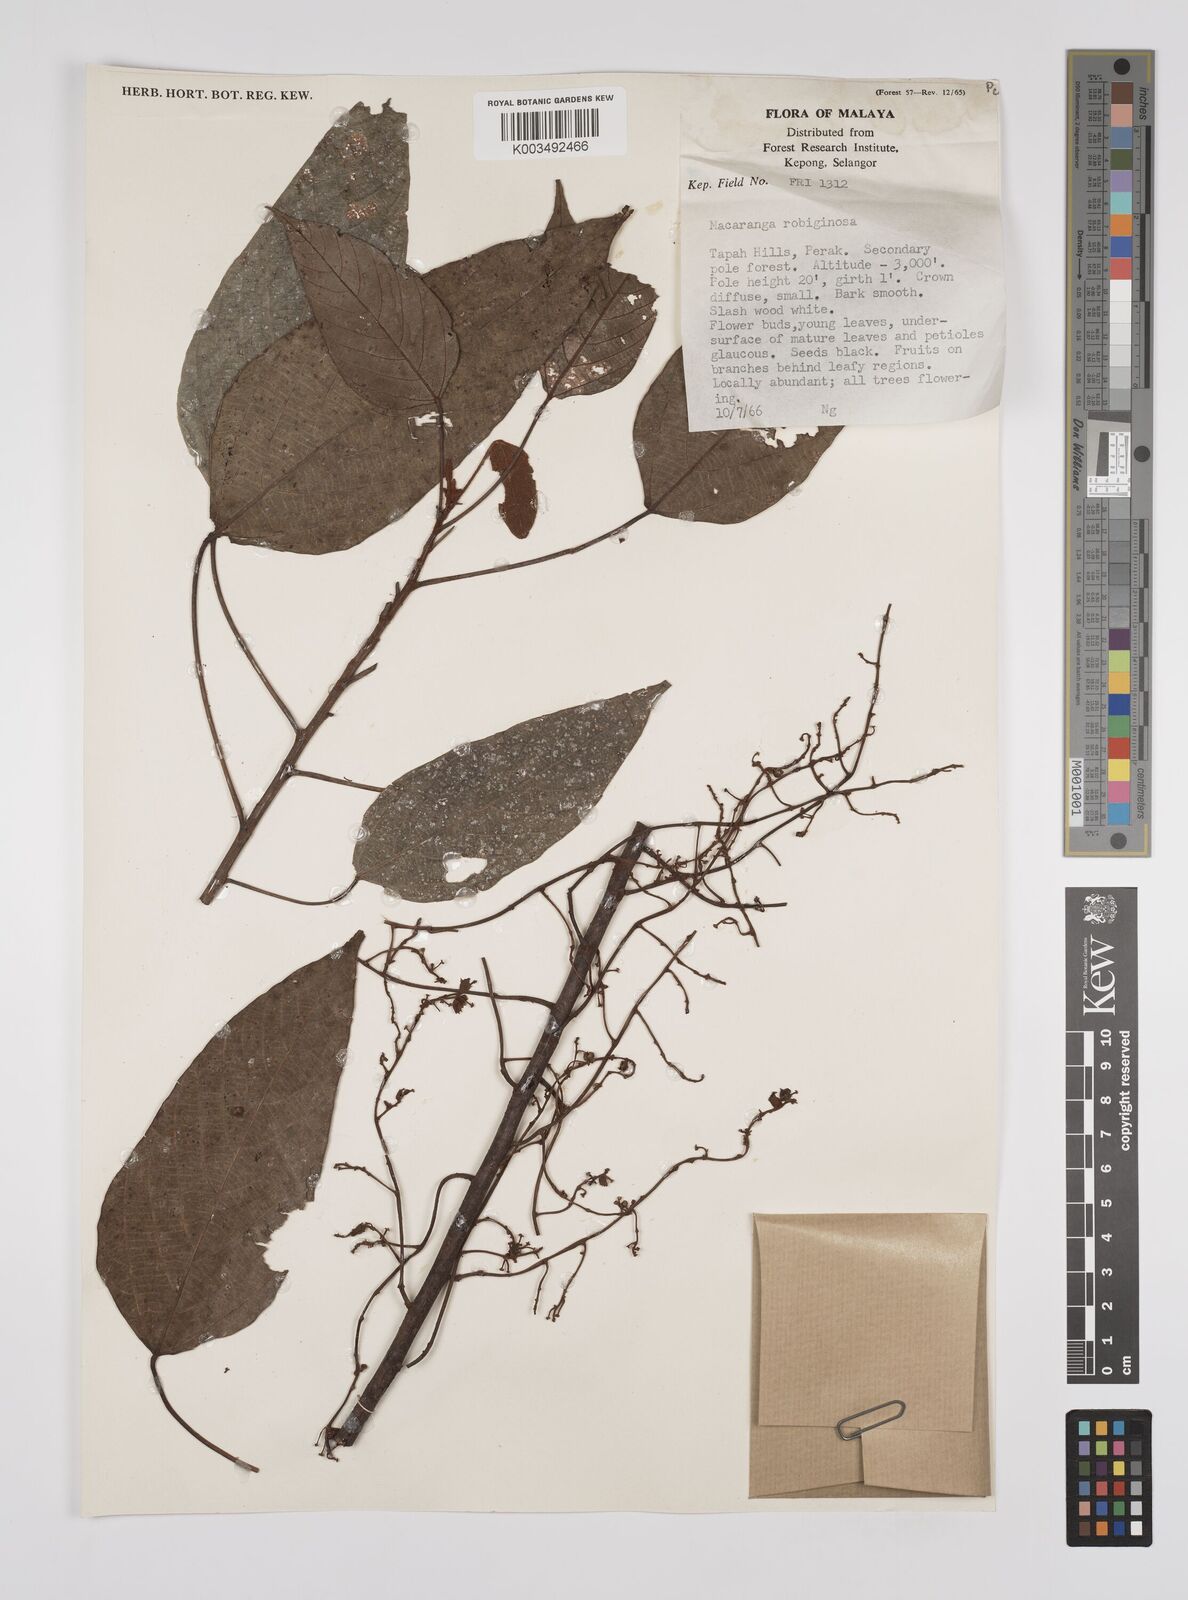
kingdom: Plantae
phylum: Tracheophyta
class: Magnoliopsida
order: Malpighiales
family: Euphorbiaceae
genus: Macaranga
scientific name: Macaranga heynei
